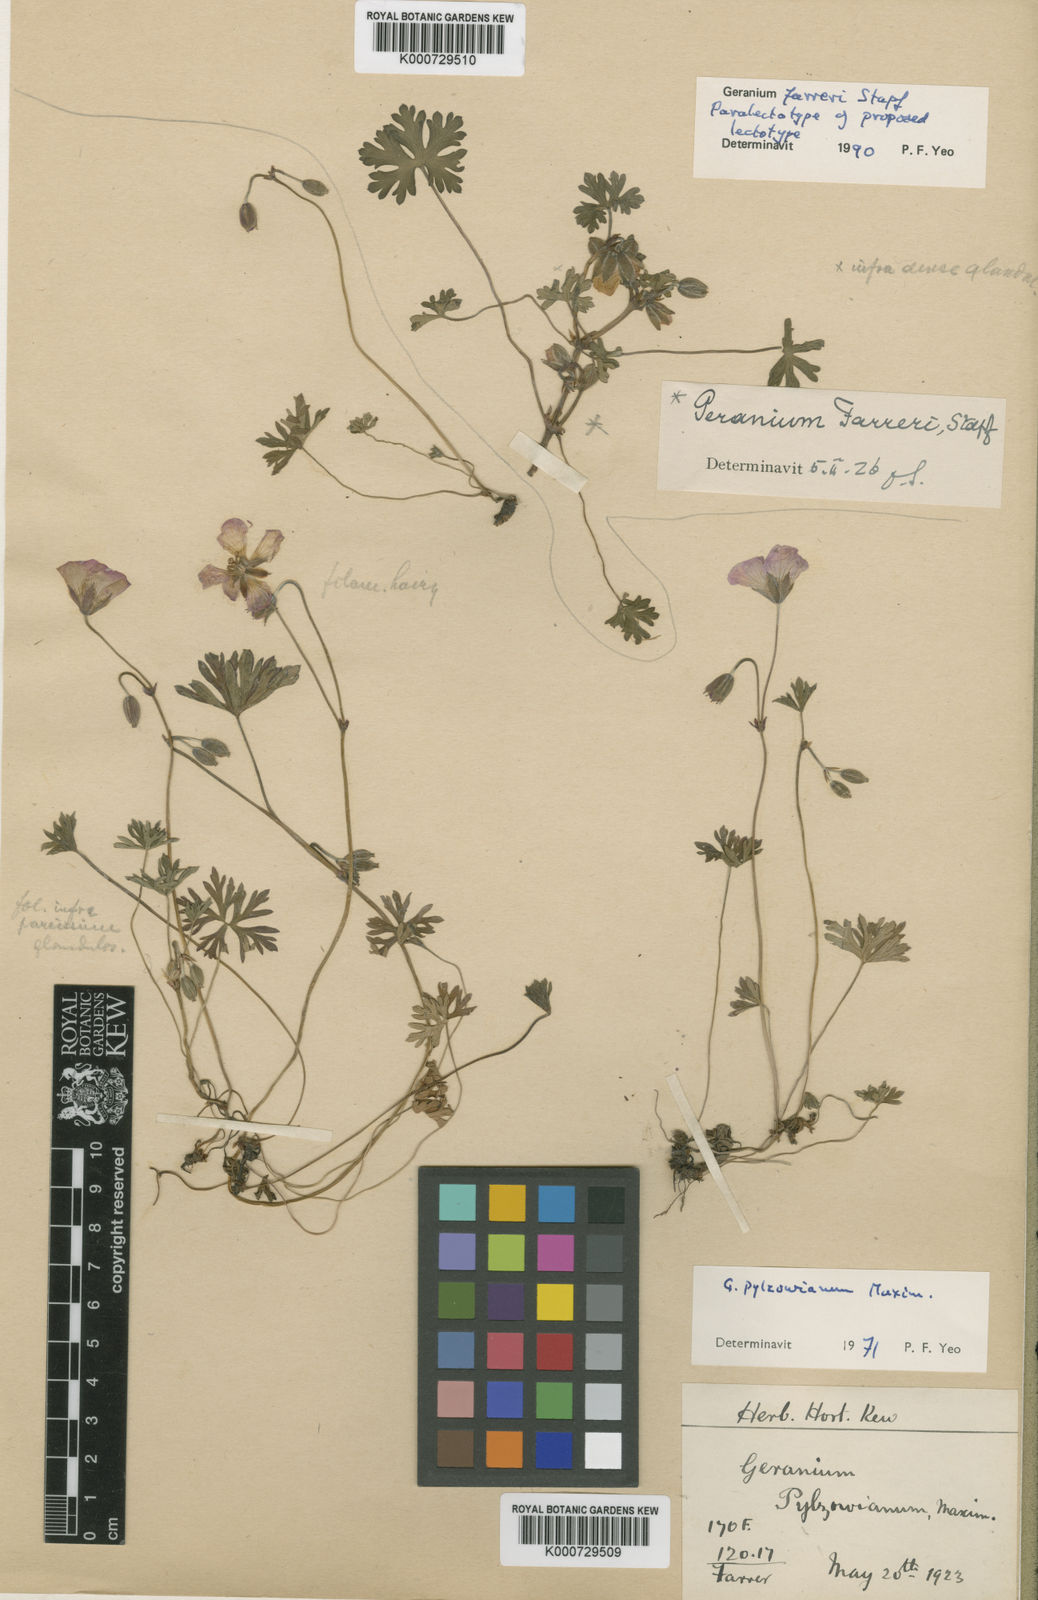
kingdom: Plantae
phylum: Tracheophyta
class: Magnoliopsida
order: Geraniales
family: Geraniaceae
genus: Geranium
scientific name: Geranium farreri
